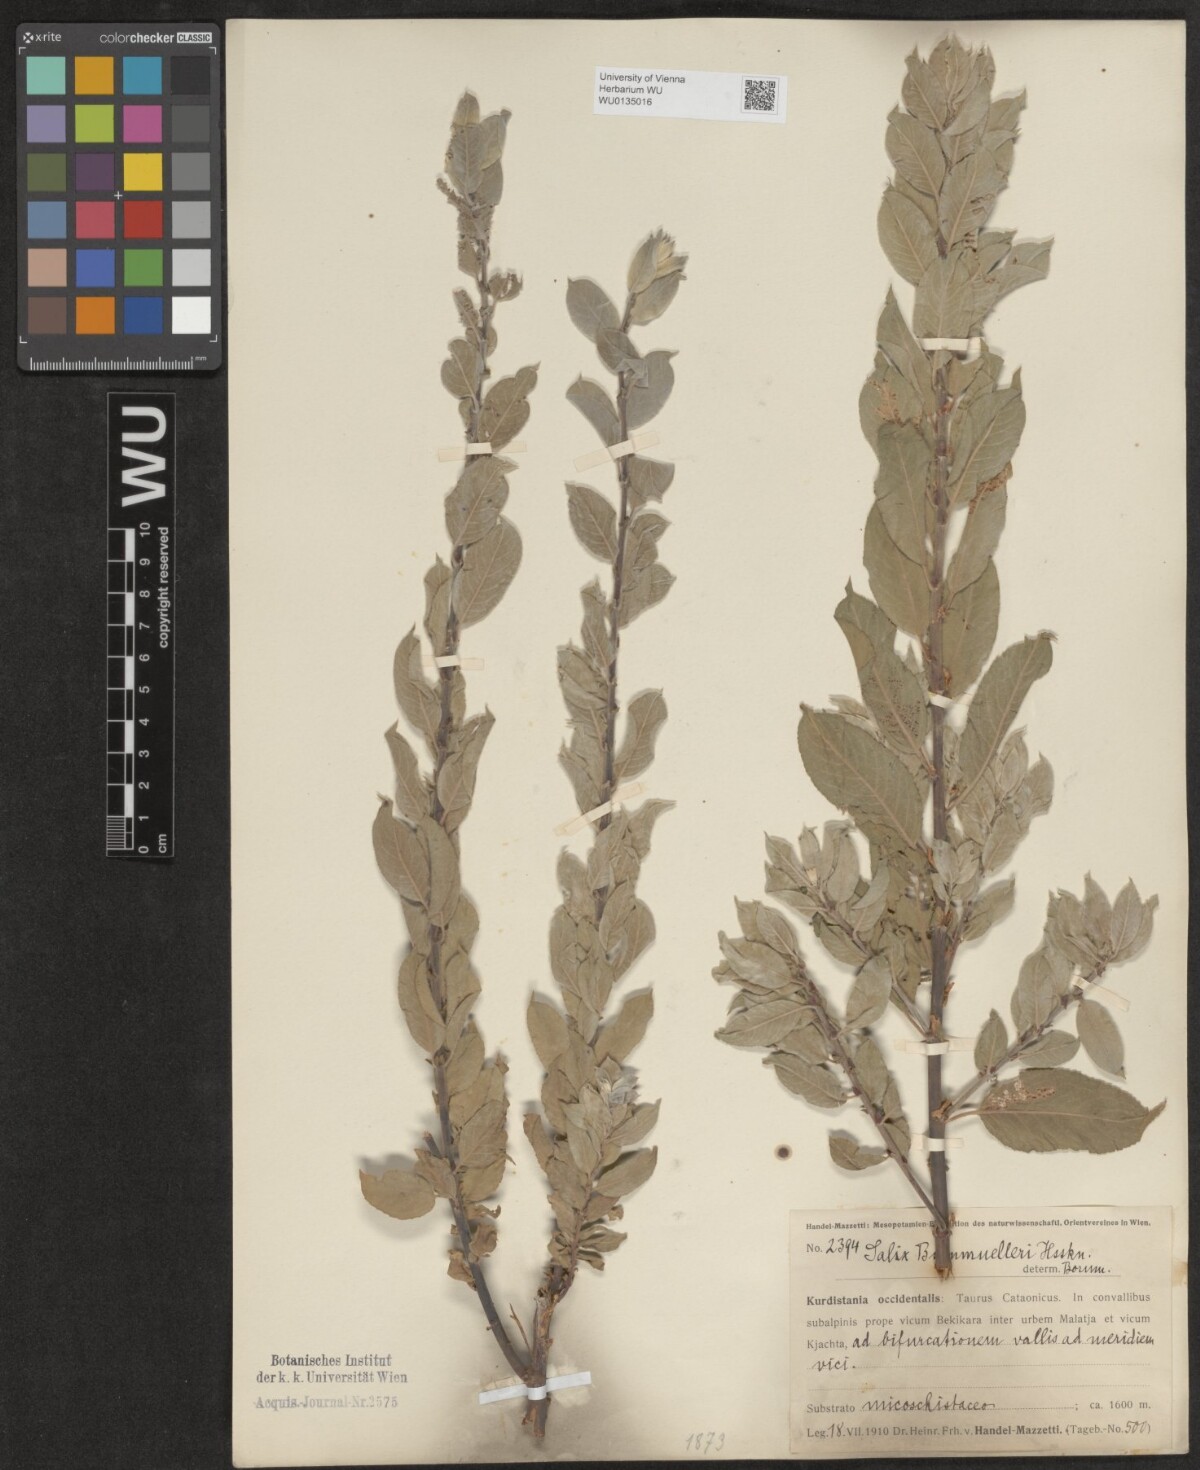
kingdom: Plantae
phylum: Tracheophyta
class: Magnoliopsida
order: Malpighiales
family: Salicaceae
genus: Salix
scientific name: Salix triandra
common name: Almond willow
